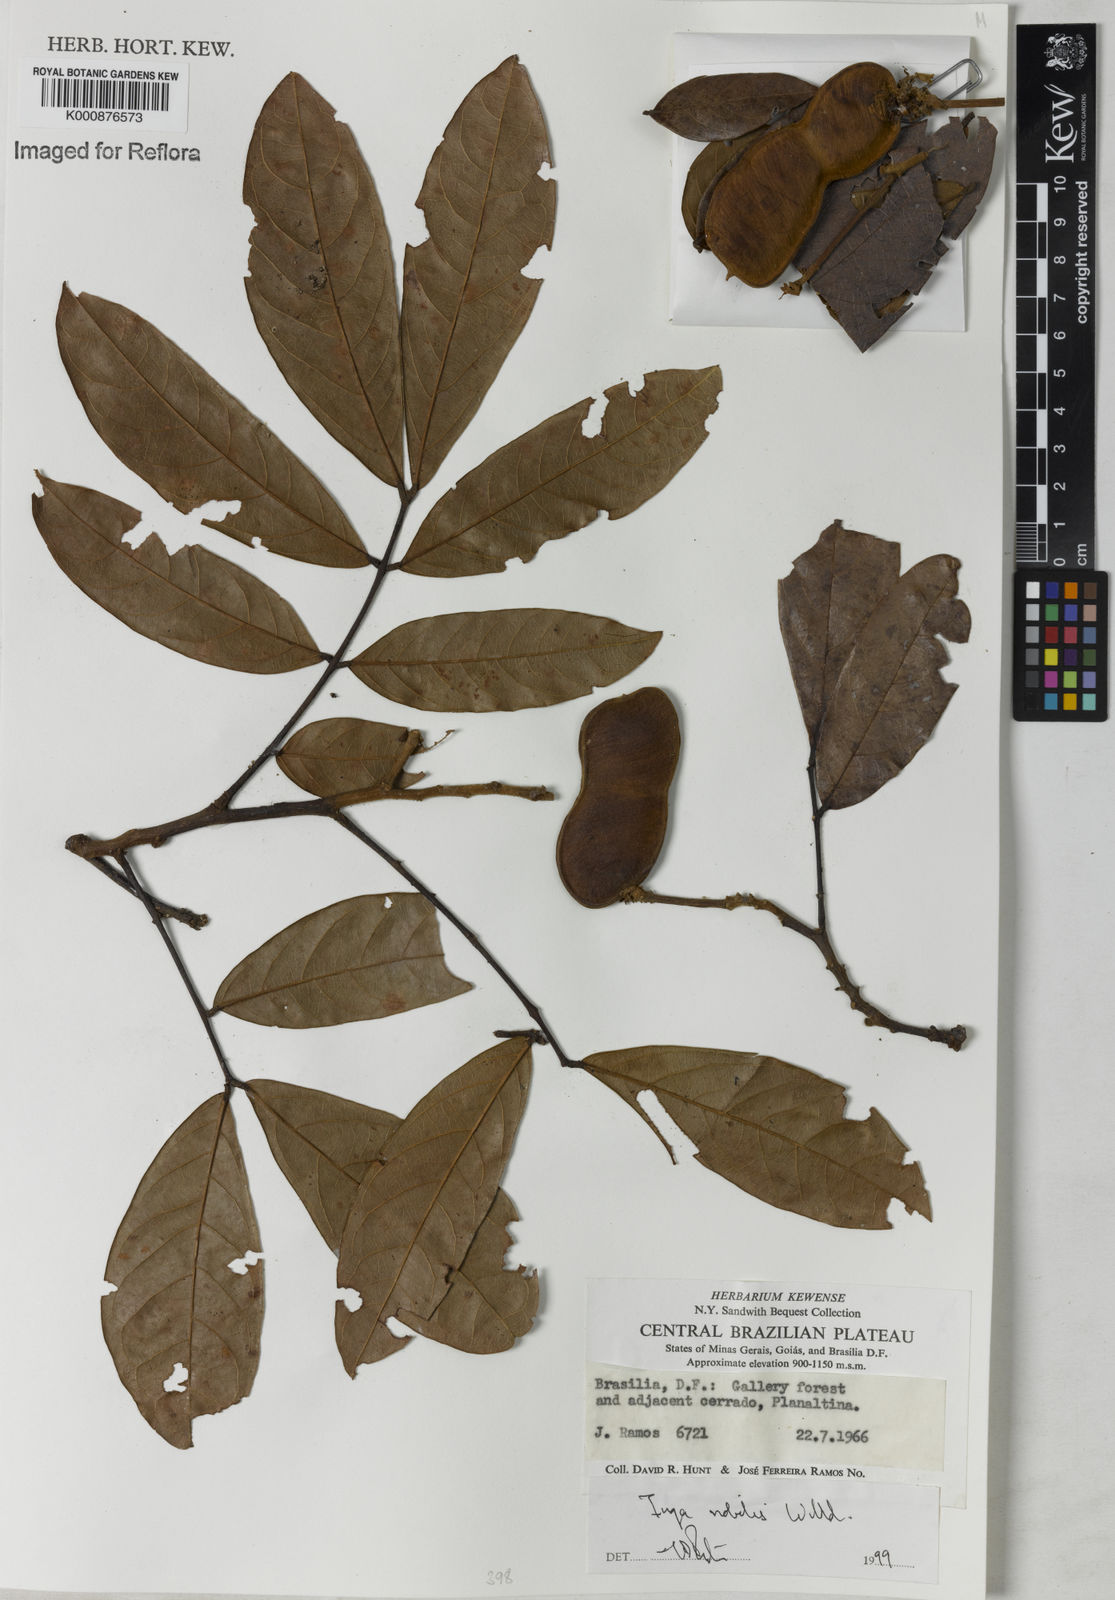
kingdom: Plantae
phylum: Tracheophyta
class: Magnoliopsida
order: Fabales
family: Fabaceae
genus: Inga
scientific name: Inga nobilis
